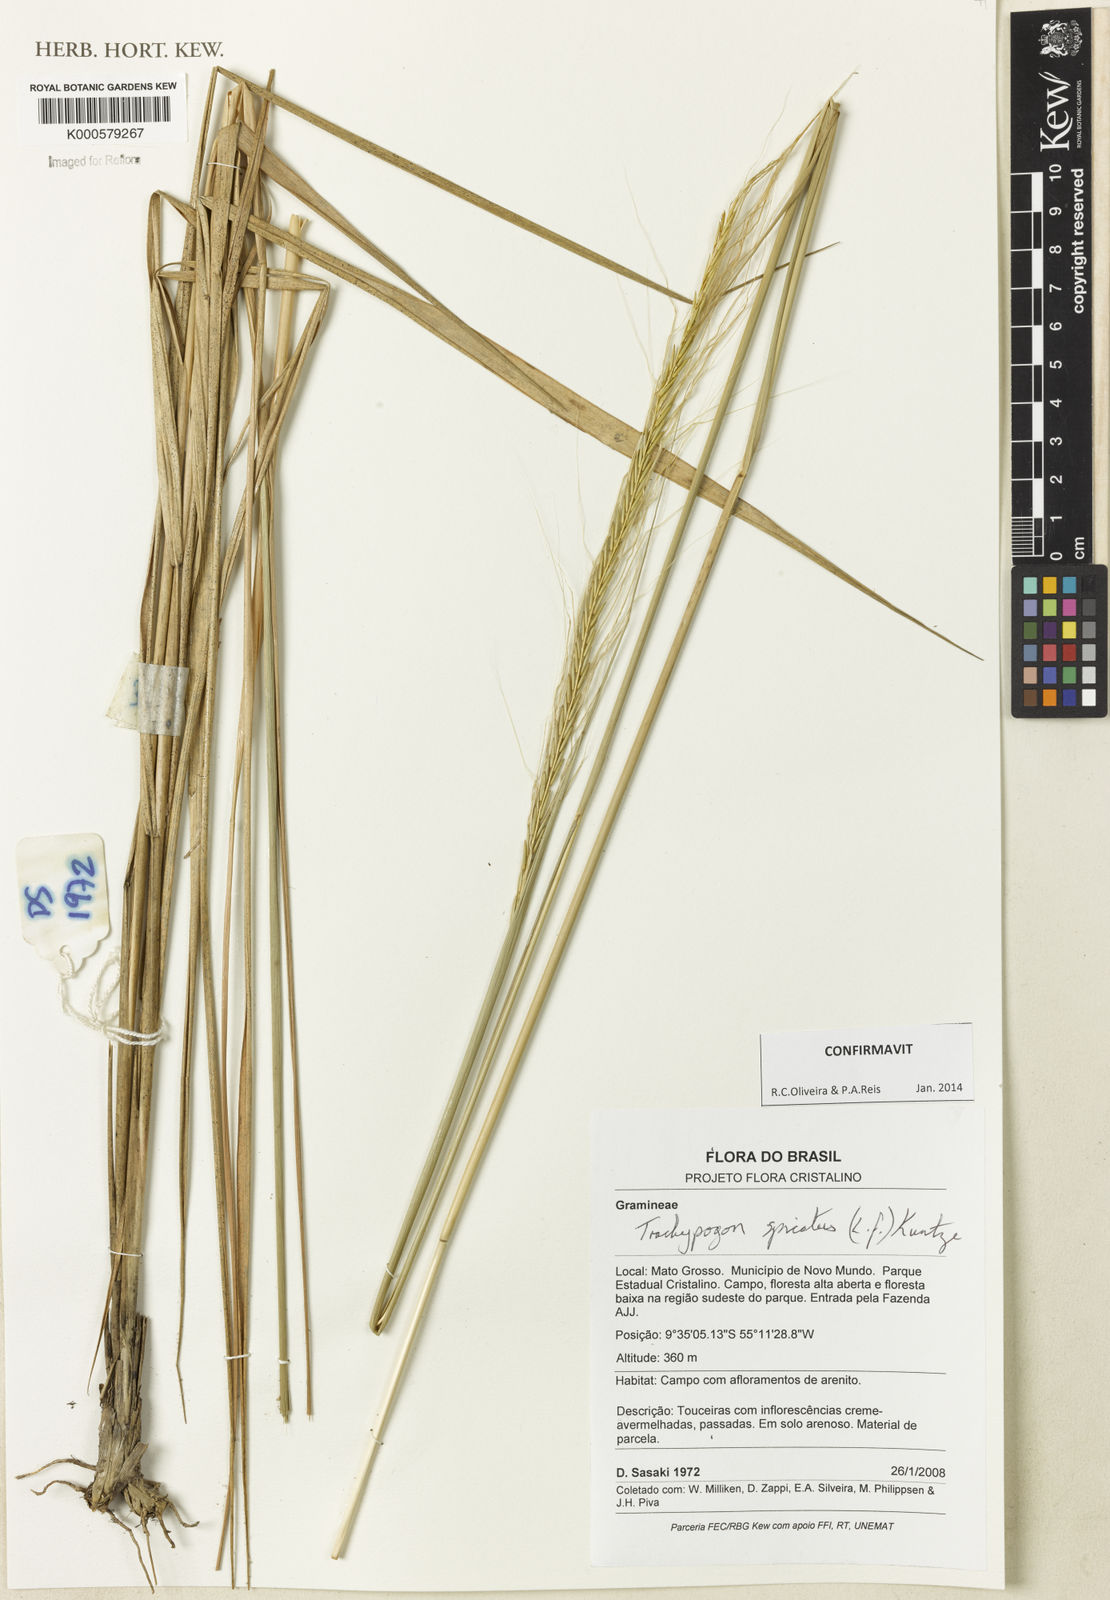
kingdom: Plantae
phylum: Tracheophyta
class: Liliopsida
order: Poales
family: Poaceae
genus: Trachypogon
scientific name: Trachypogon spicatus
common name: Crinkle-awn
